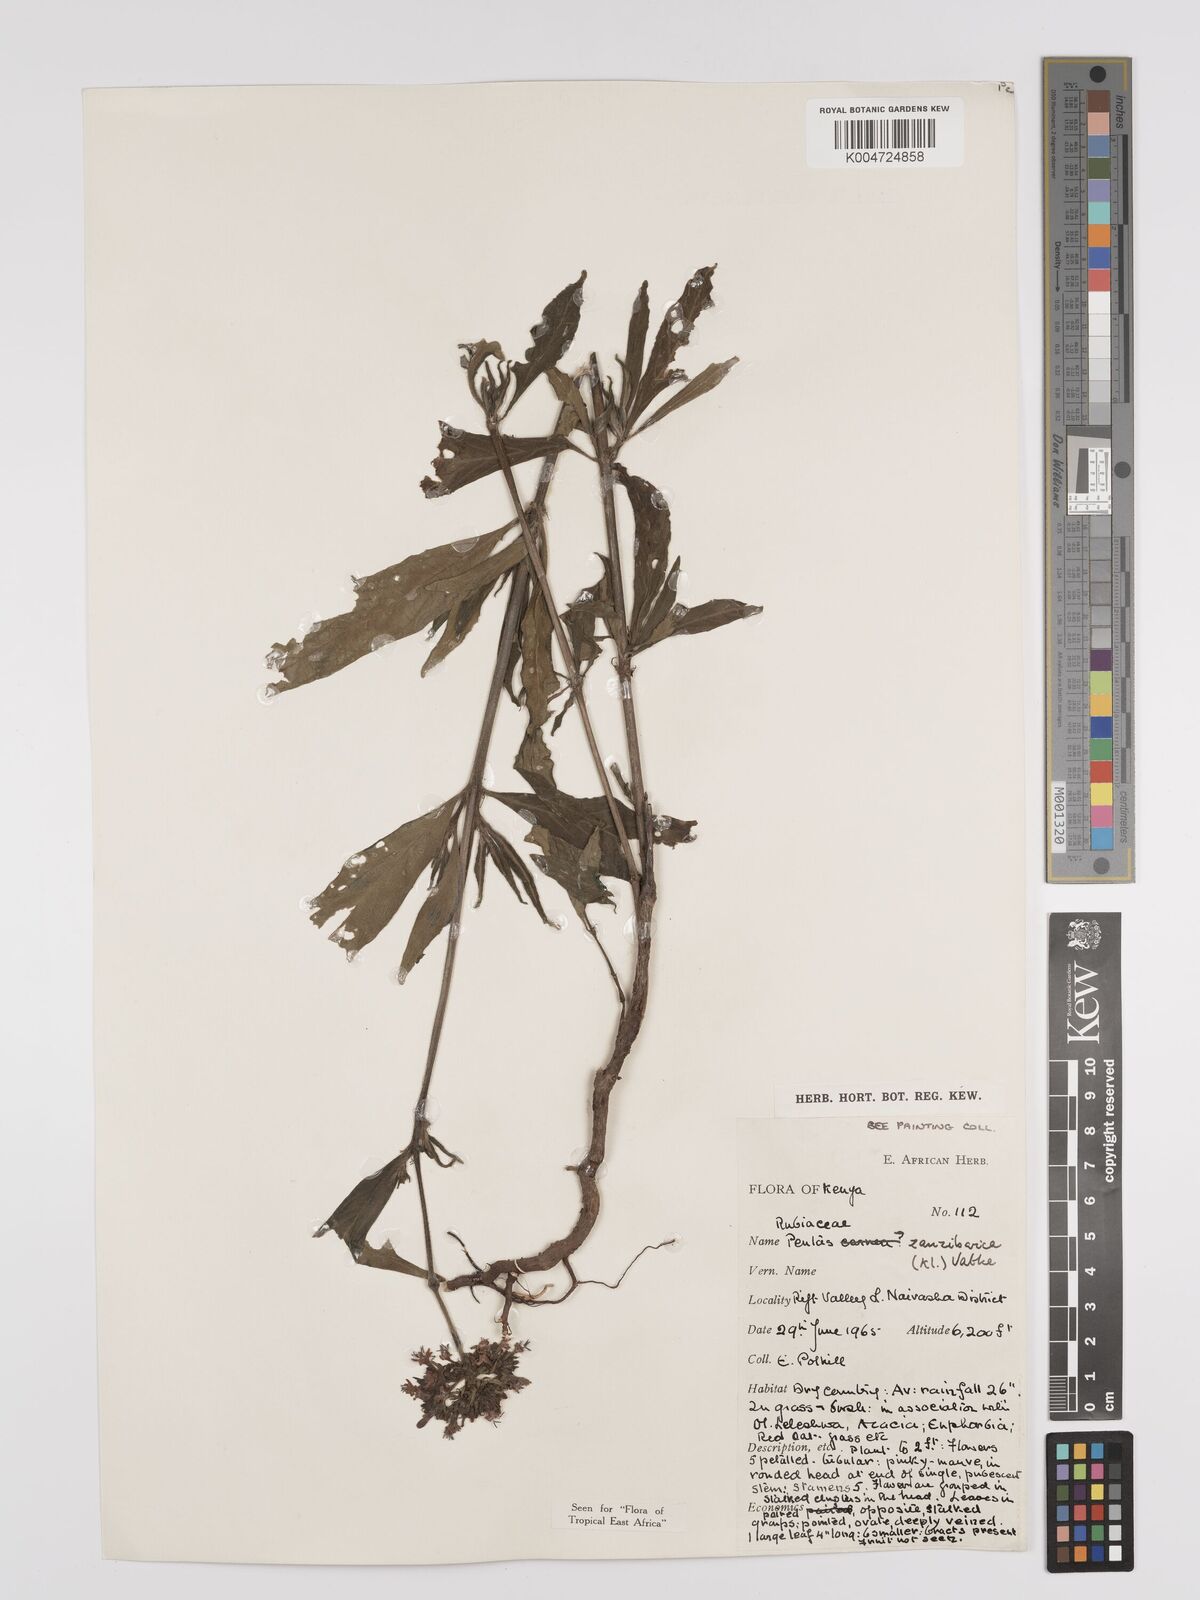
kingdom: Plantae
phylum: Tracheophyta
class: Magnoliopsida
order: Gentianales
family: Rubiaceae
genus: Pentas
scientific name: Pentas zanzibarica
